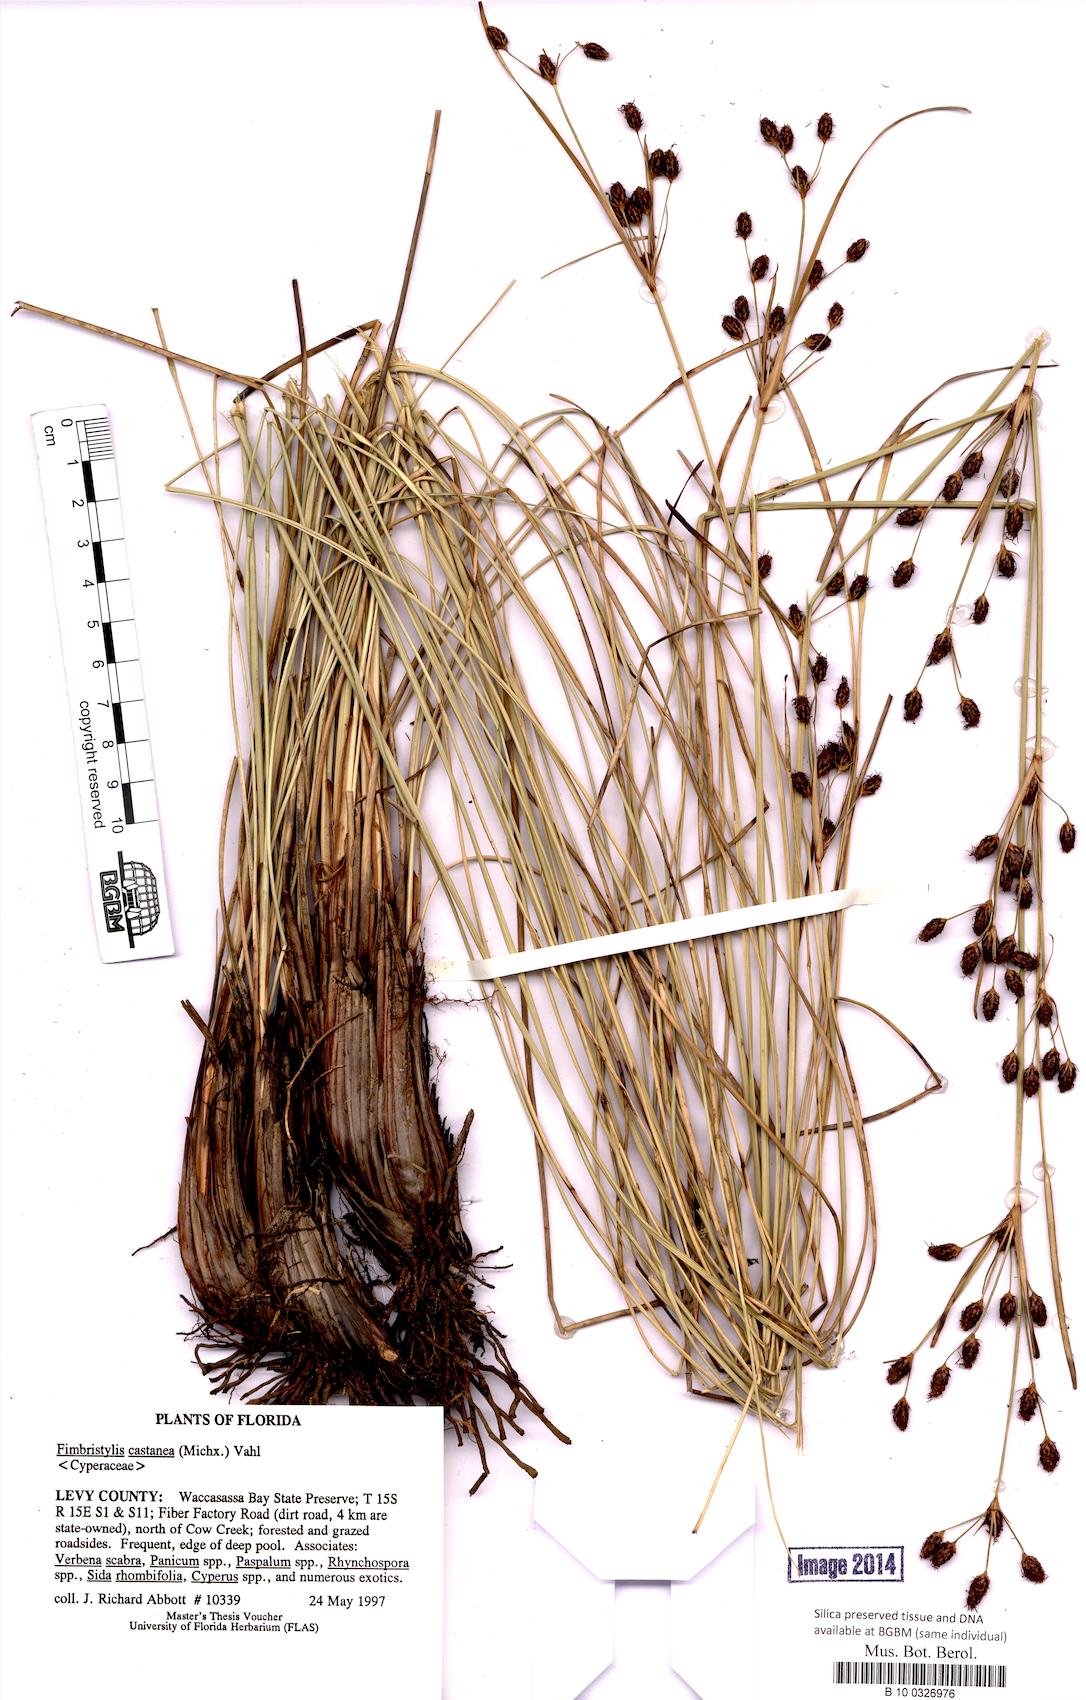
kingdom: Plantae
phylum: Tracheophyta
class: Liliopsida
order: Poales
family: Cyperaceae
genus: Fimbristylis
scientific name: Fimbristylis spadicea
